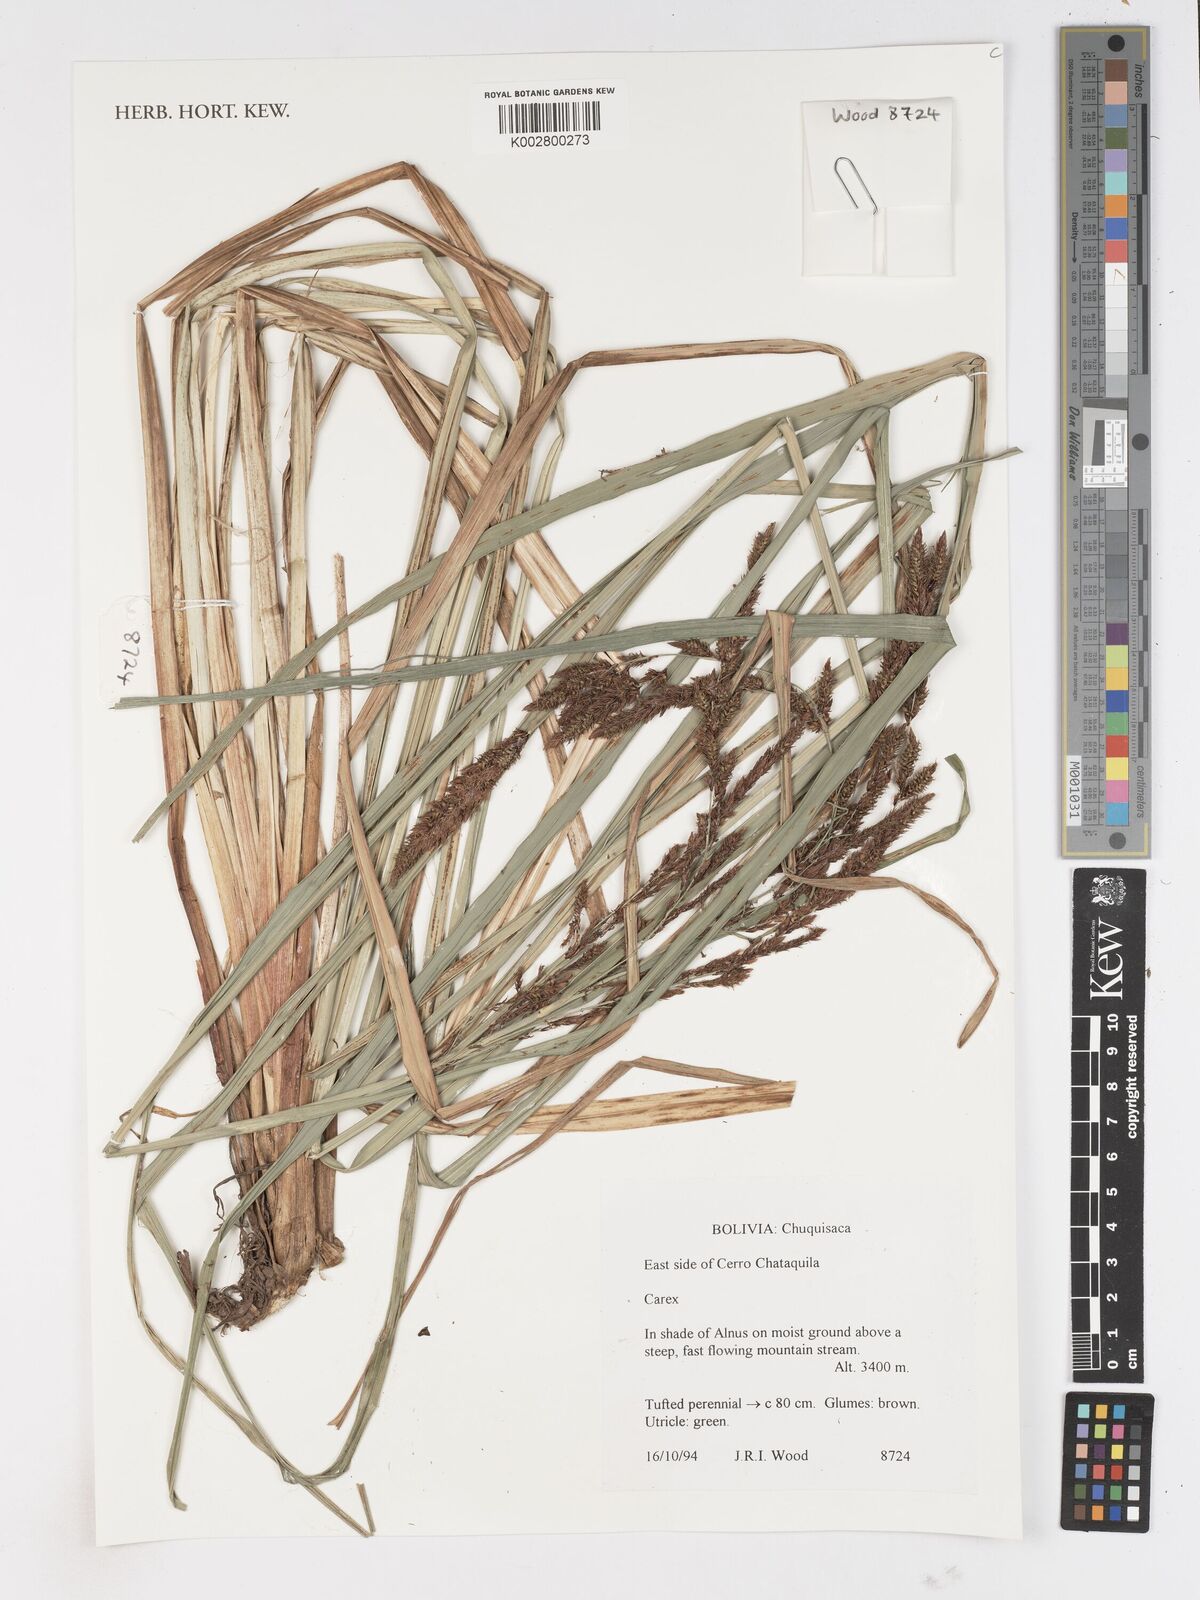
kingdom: Plantae
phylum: Tracheophyta
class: Liliopsida
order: Poales
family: Cyperaceae
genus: Carex
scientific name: Carex
